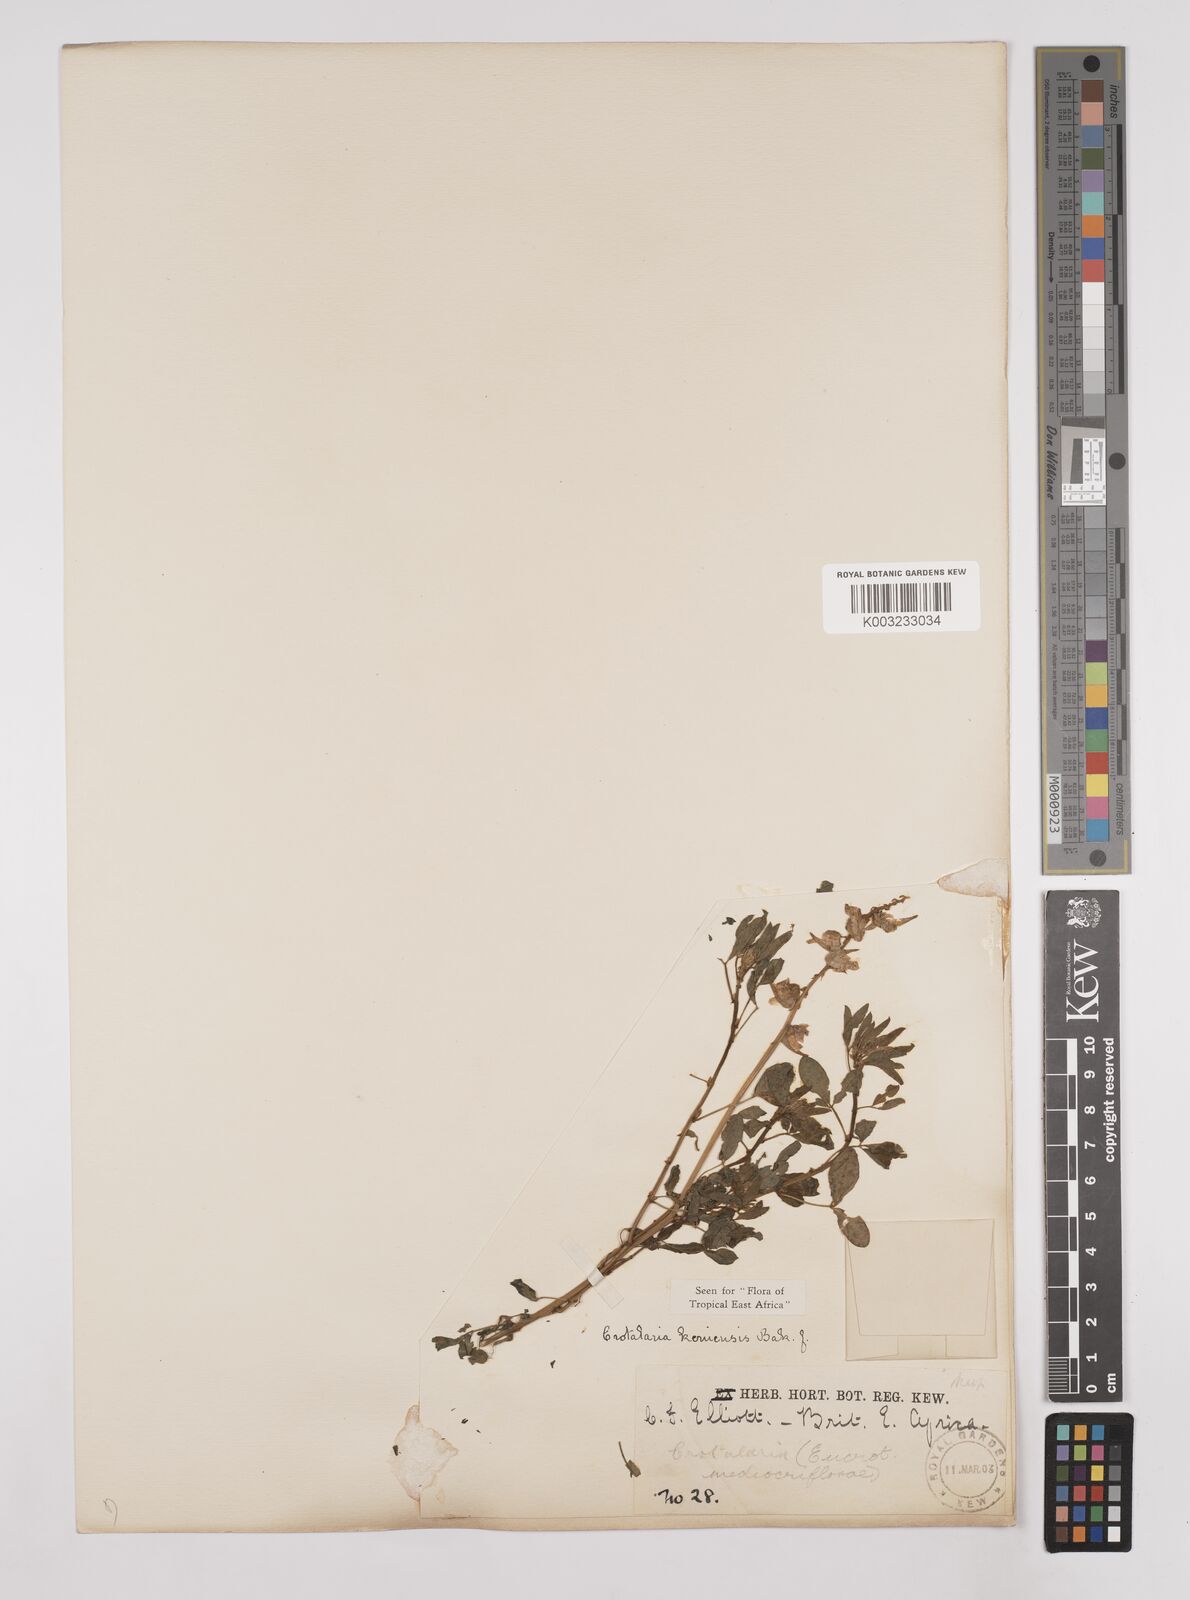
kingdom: Plantae
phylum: Tracheophyta
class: Magnoliopsida
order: Fabales
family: Fabaceae
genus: Crotalaria
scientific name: Crotalaria keniensis
